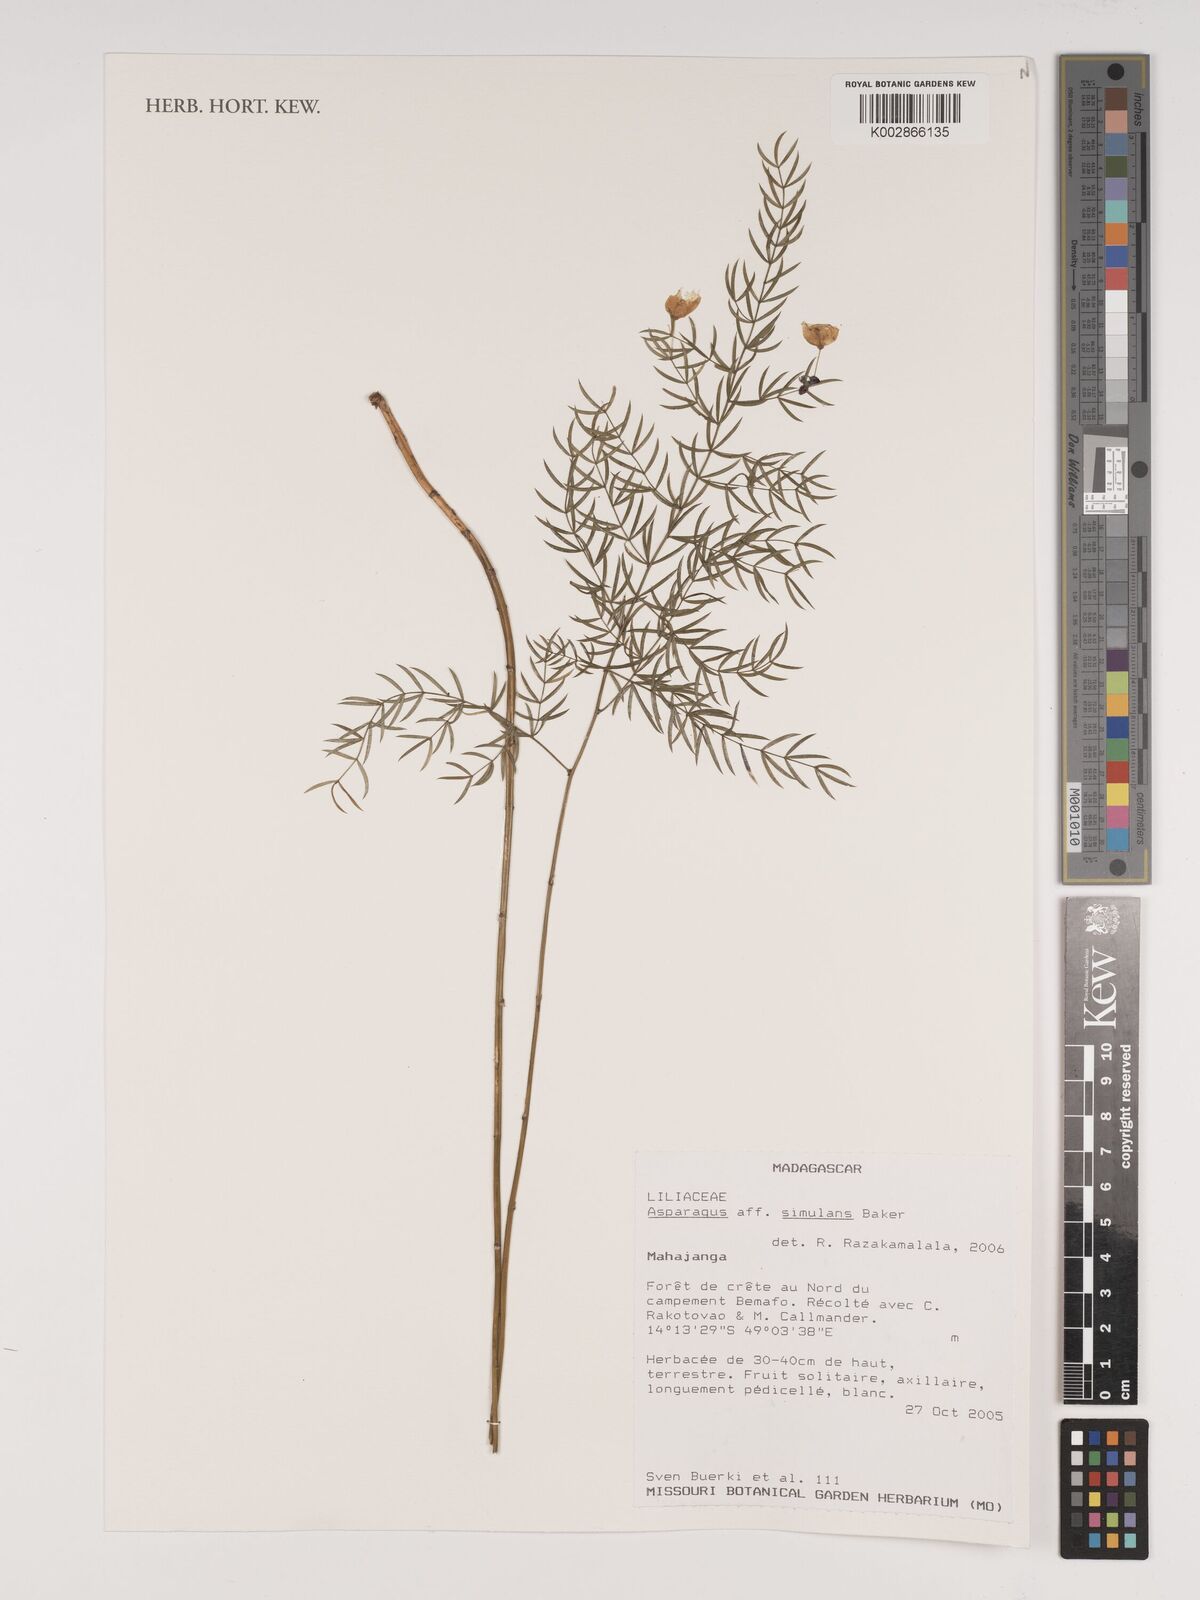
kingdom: Plantae
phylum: Tracheophyta
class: Liliopsida
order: Asparagales
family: Asparagaceae
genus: Asparagus
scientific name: Asparagus simulans
